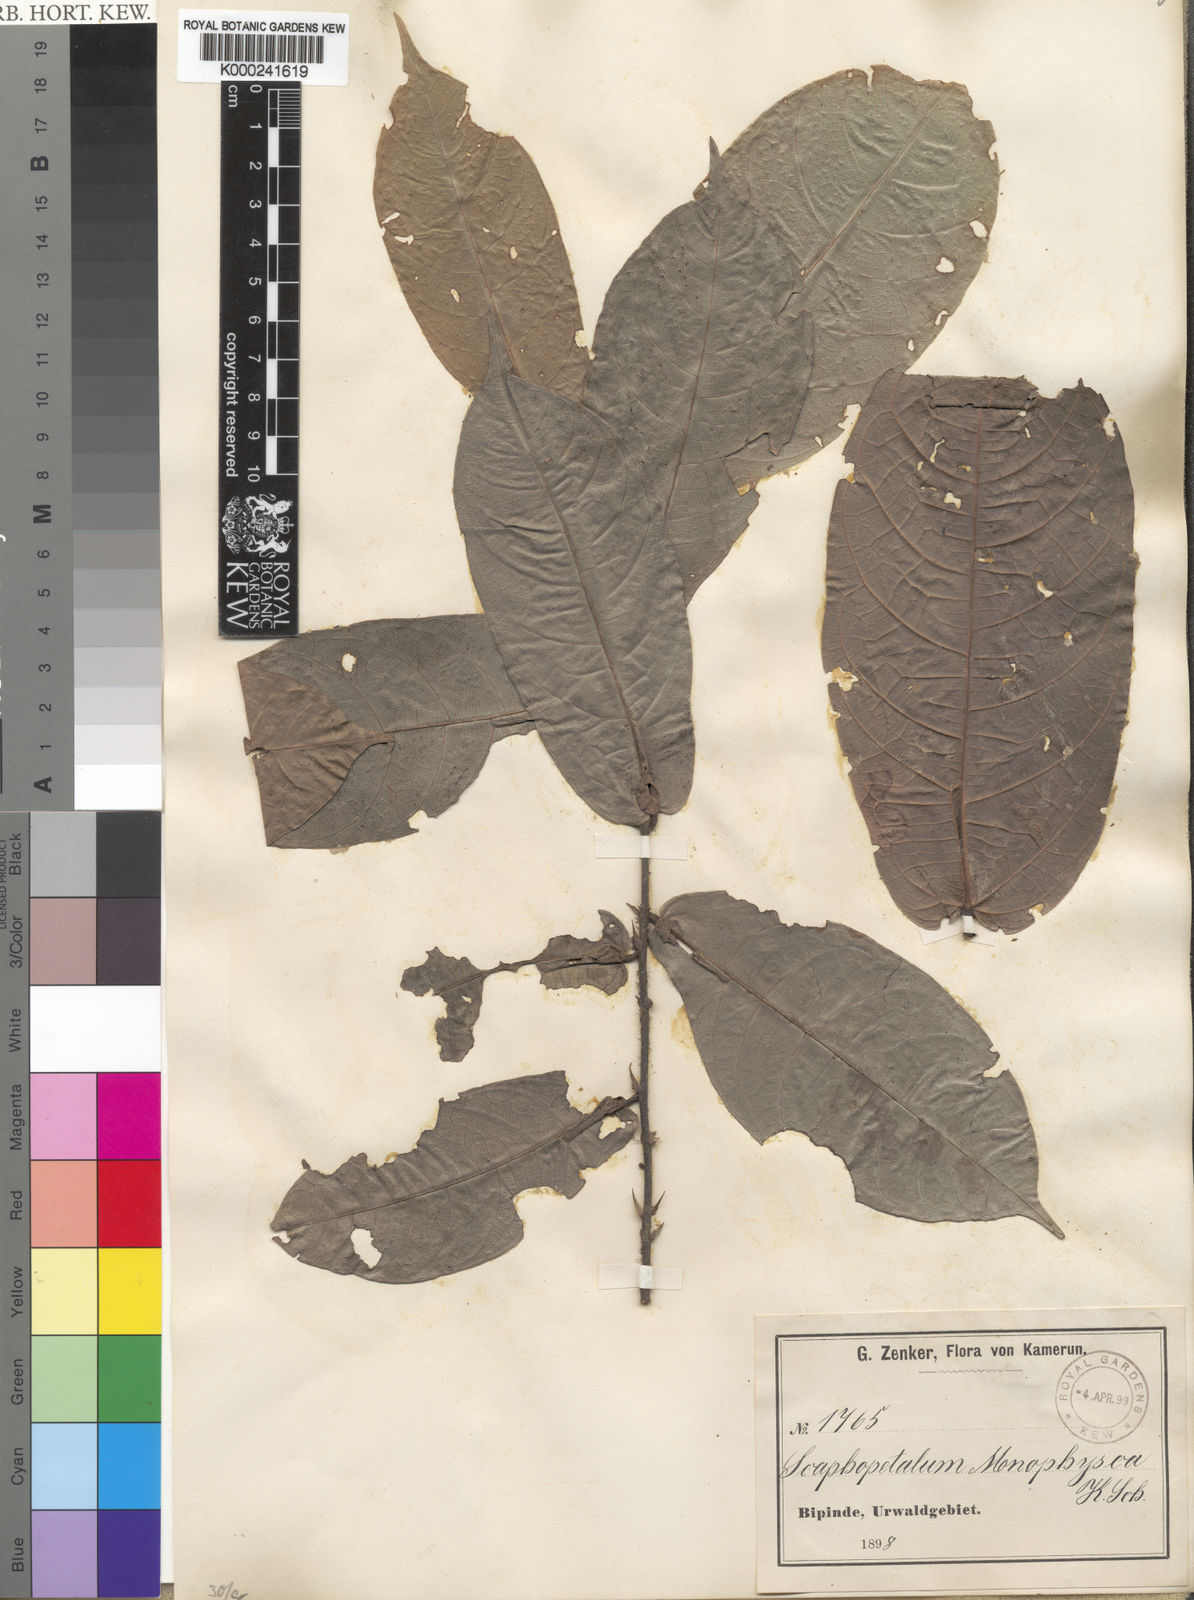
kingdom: Plantae
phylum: Tracheophyta
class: Magnoliopsida
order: Malvales
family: Malvaceae
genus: Scaphopetalum
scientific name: Scaphopetalum thonneri
